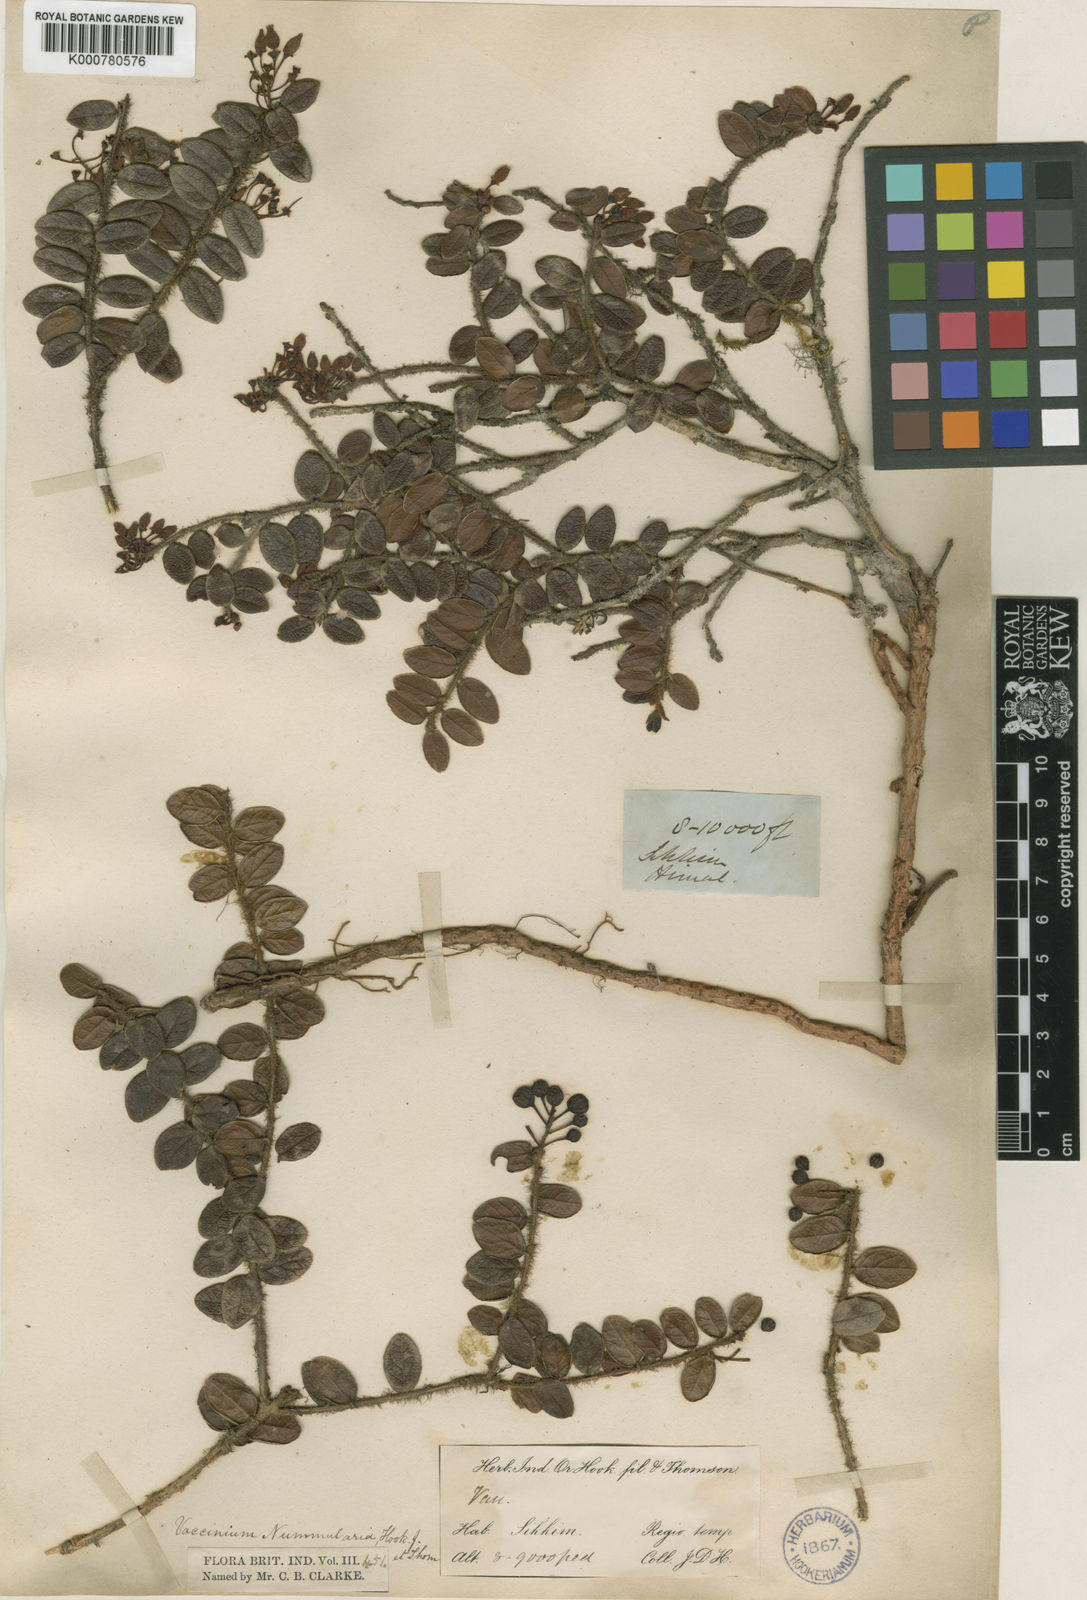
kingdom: Plantae
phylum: Tracheophyta
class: Magnoliopsida
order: Ericales
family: Ericaceae
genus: Vaccinium
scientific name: Vaccinium nummularia
